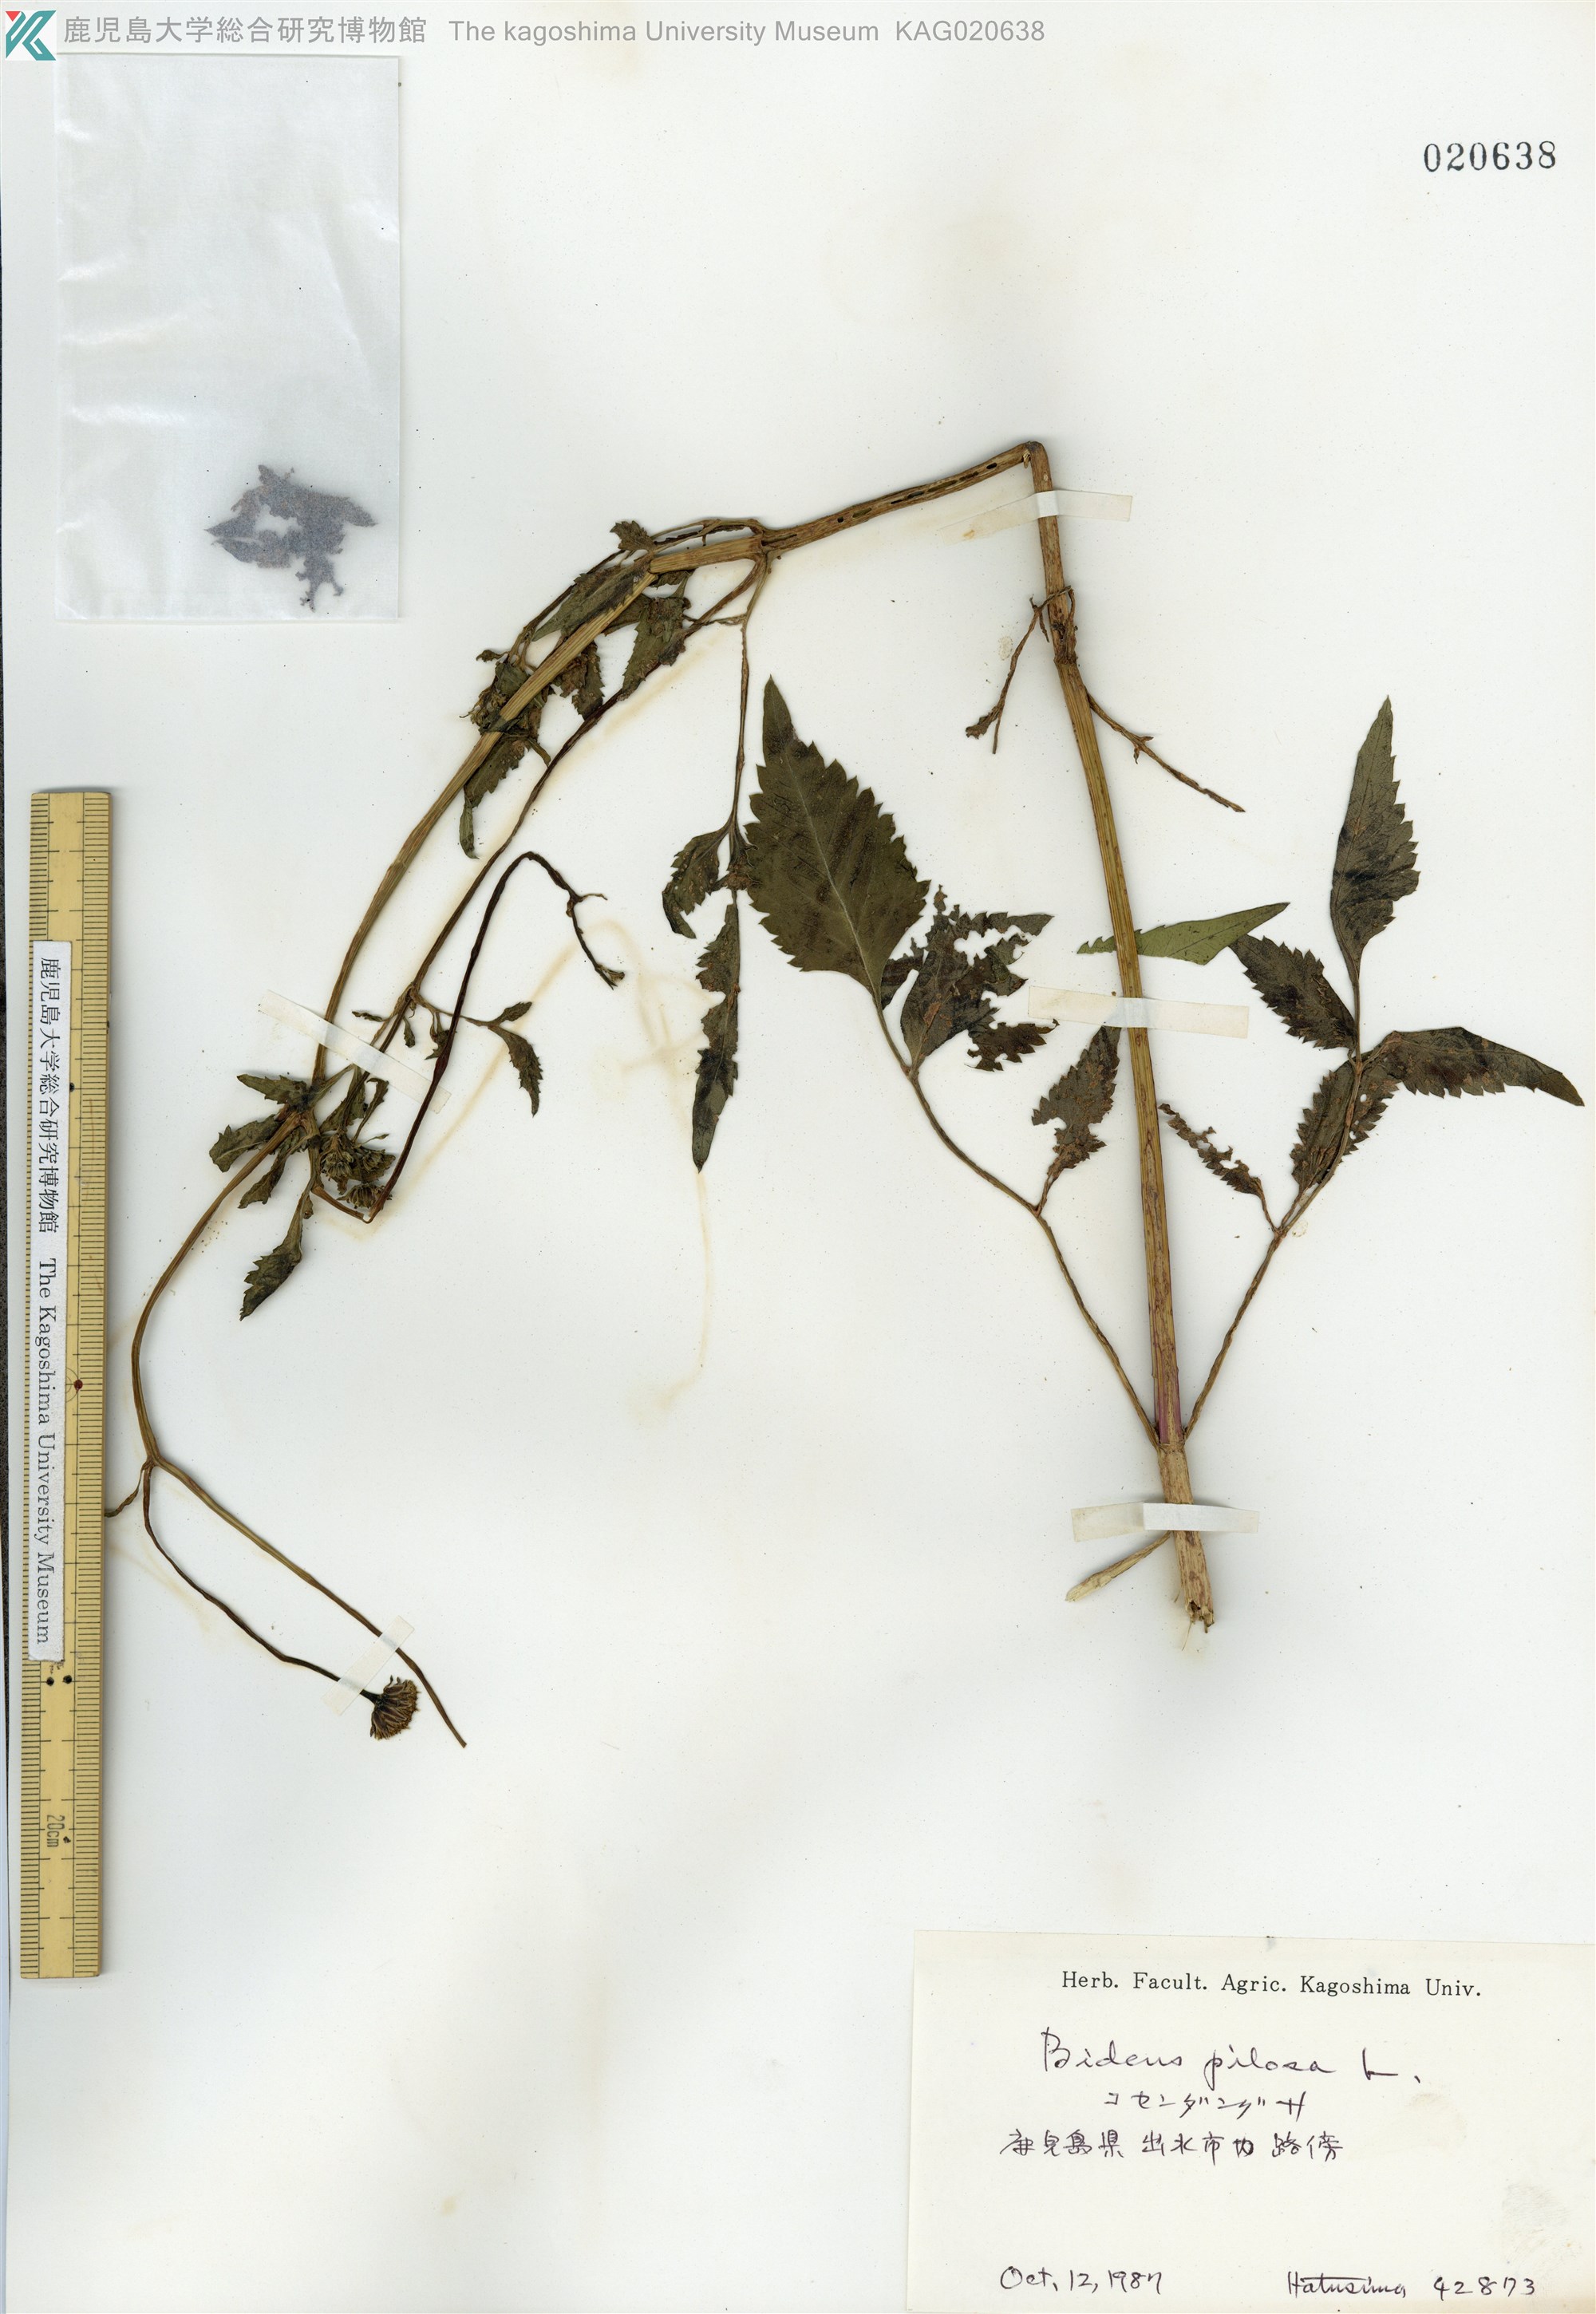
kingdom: Plantae
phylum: Tracheophyta
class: Magnoliopsida
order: Asterales
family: Asteraceae
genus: Bidens
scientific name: Bidens pilosa
